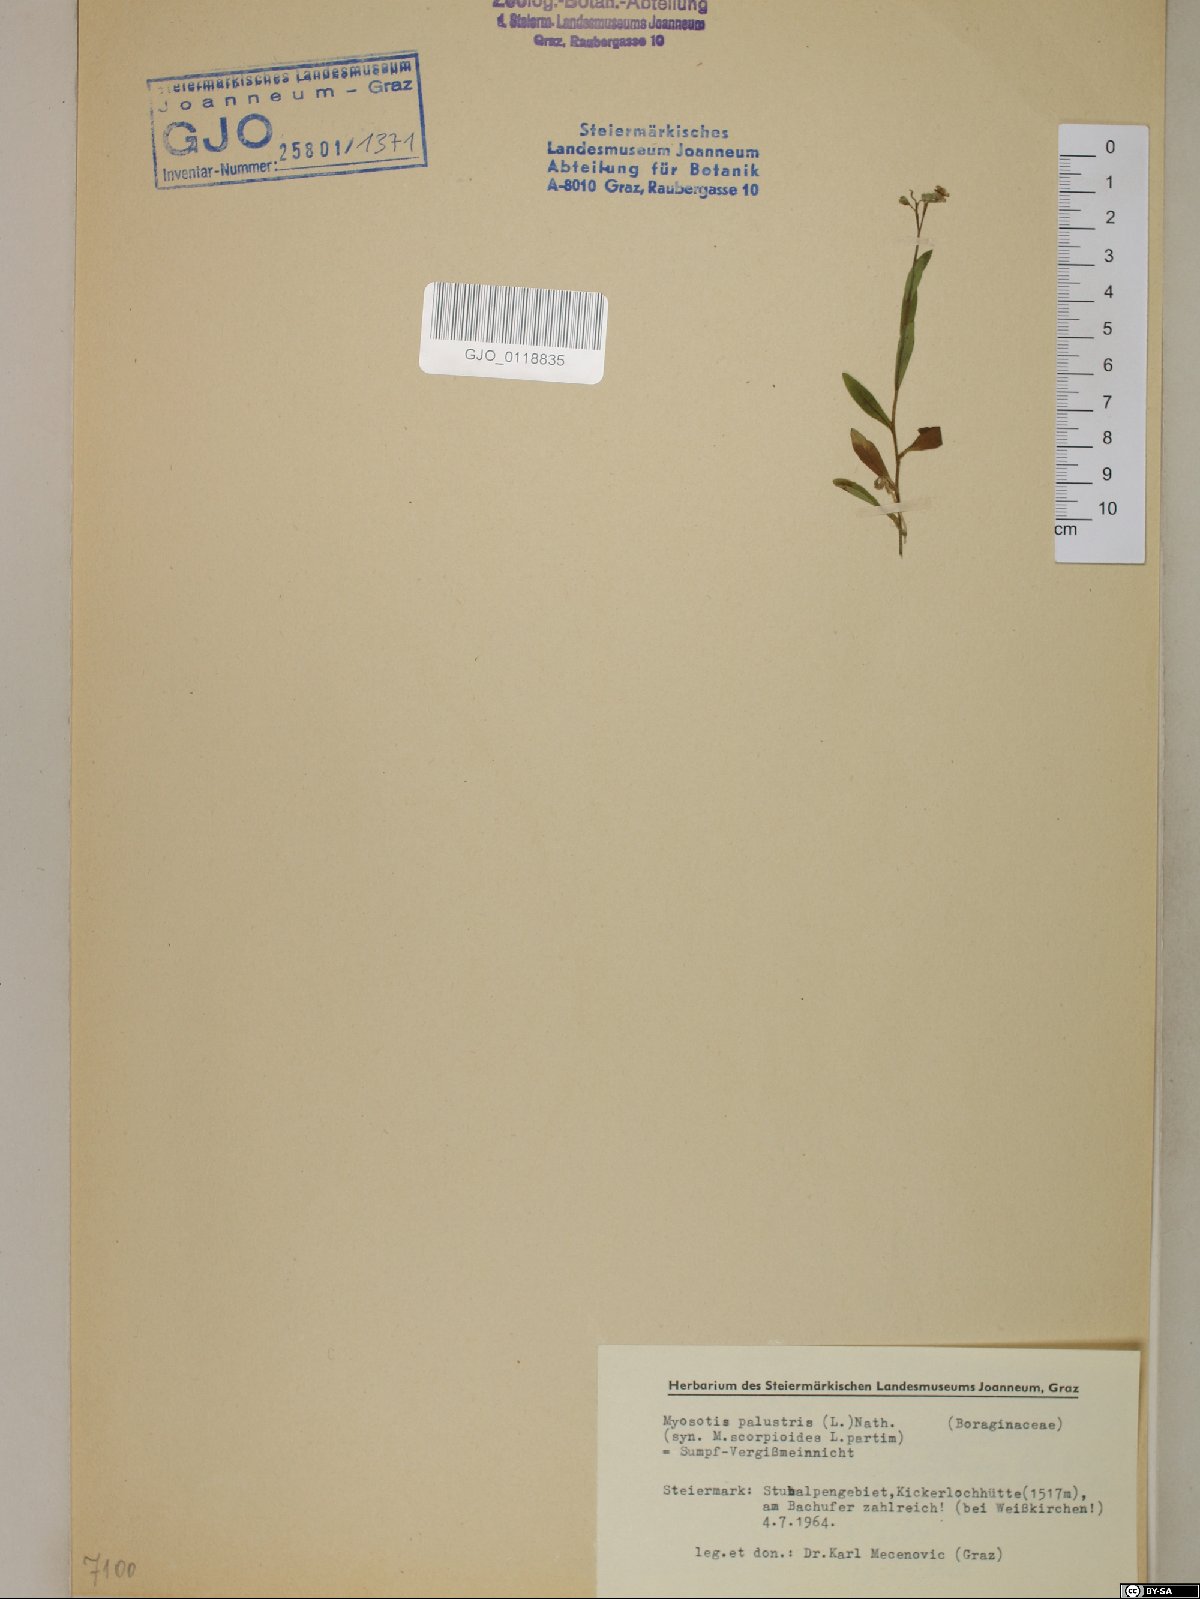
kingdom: Plantae
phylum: Tracheophyta
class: Magnoliopsida
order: Boraginales
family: Boraginaceae
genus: Myosotis
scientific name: Myosotis scorpioides
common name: Water forget-me-not
